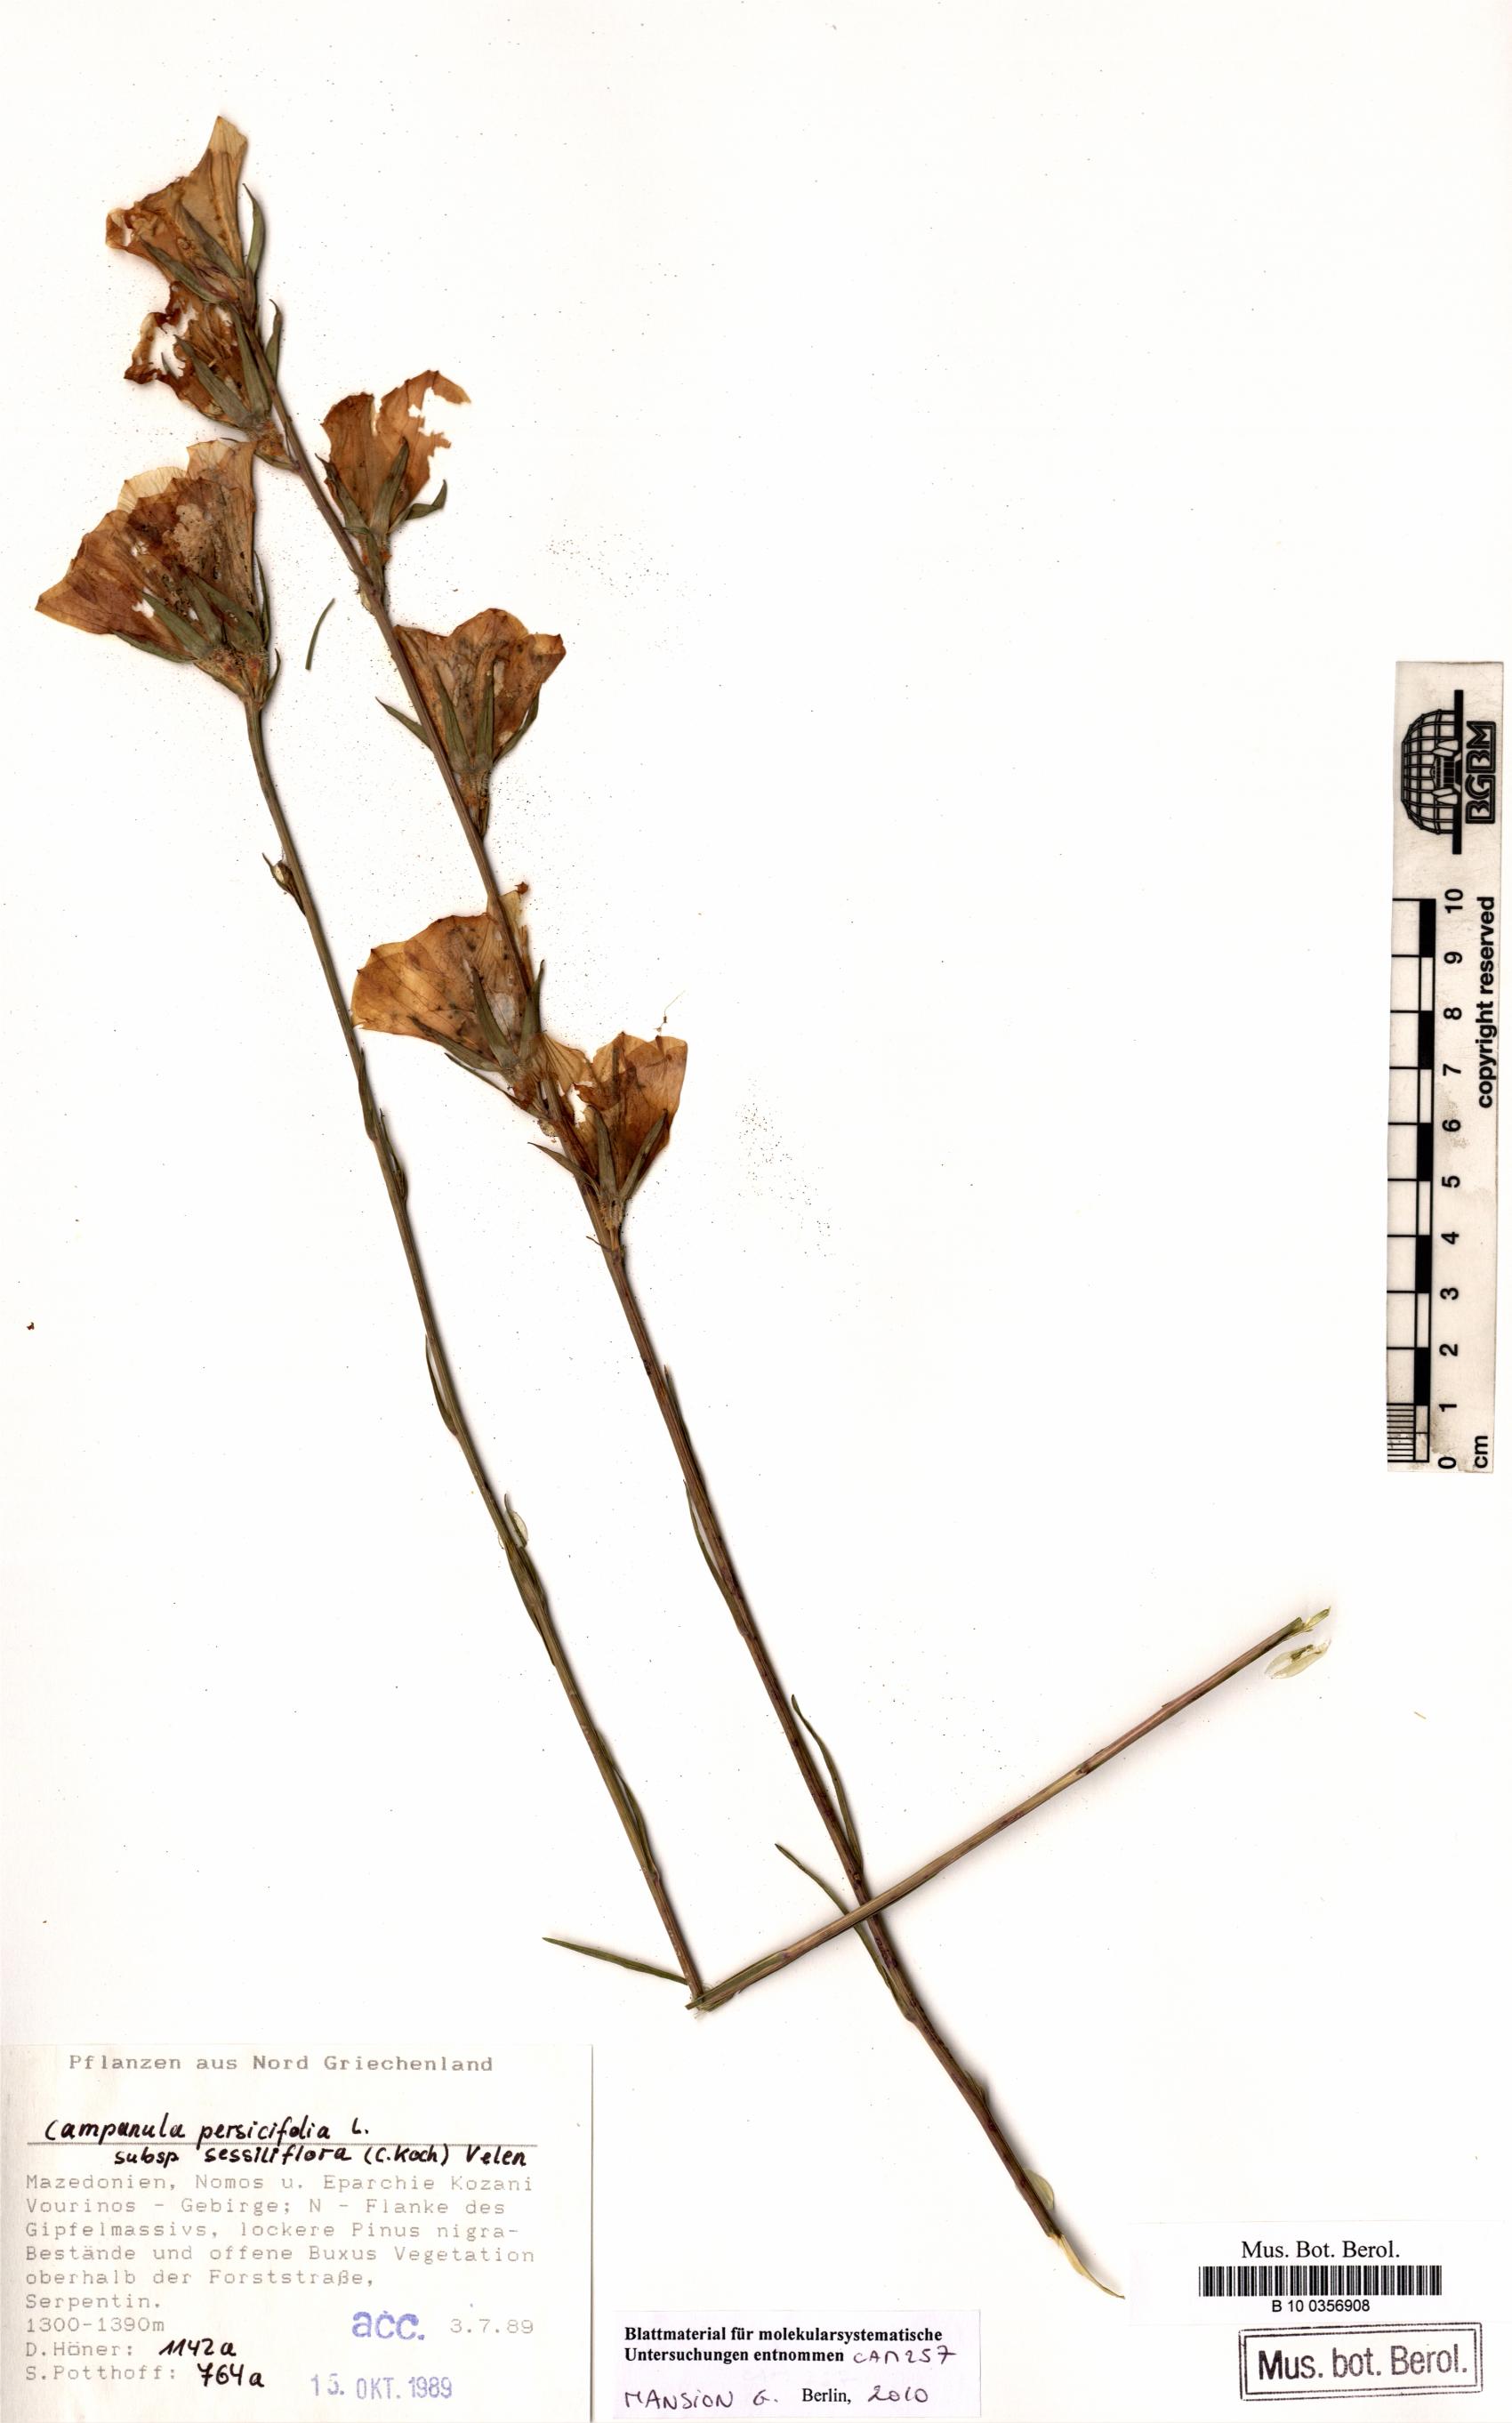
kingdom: Plantae
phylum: Tracheophyta
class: Magnoliopsida
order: Asterales
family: Campanulaceae
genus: Campanula
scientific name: Campanula persicifolia
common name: Peach-leaved bellflower
